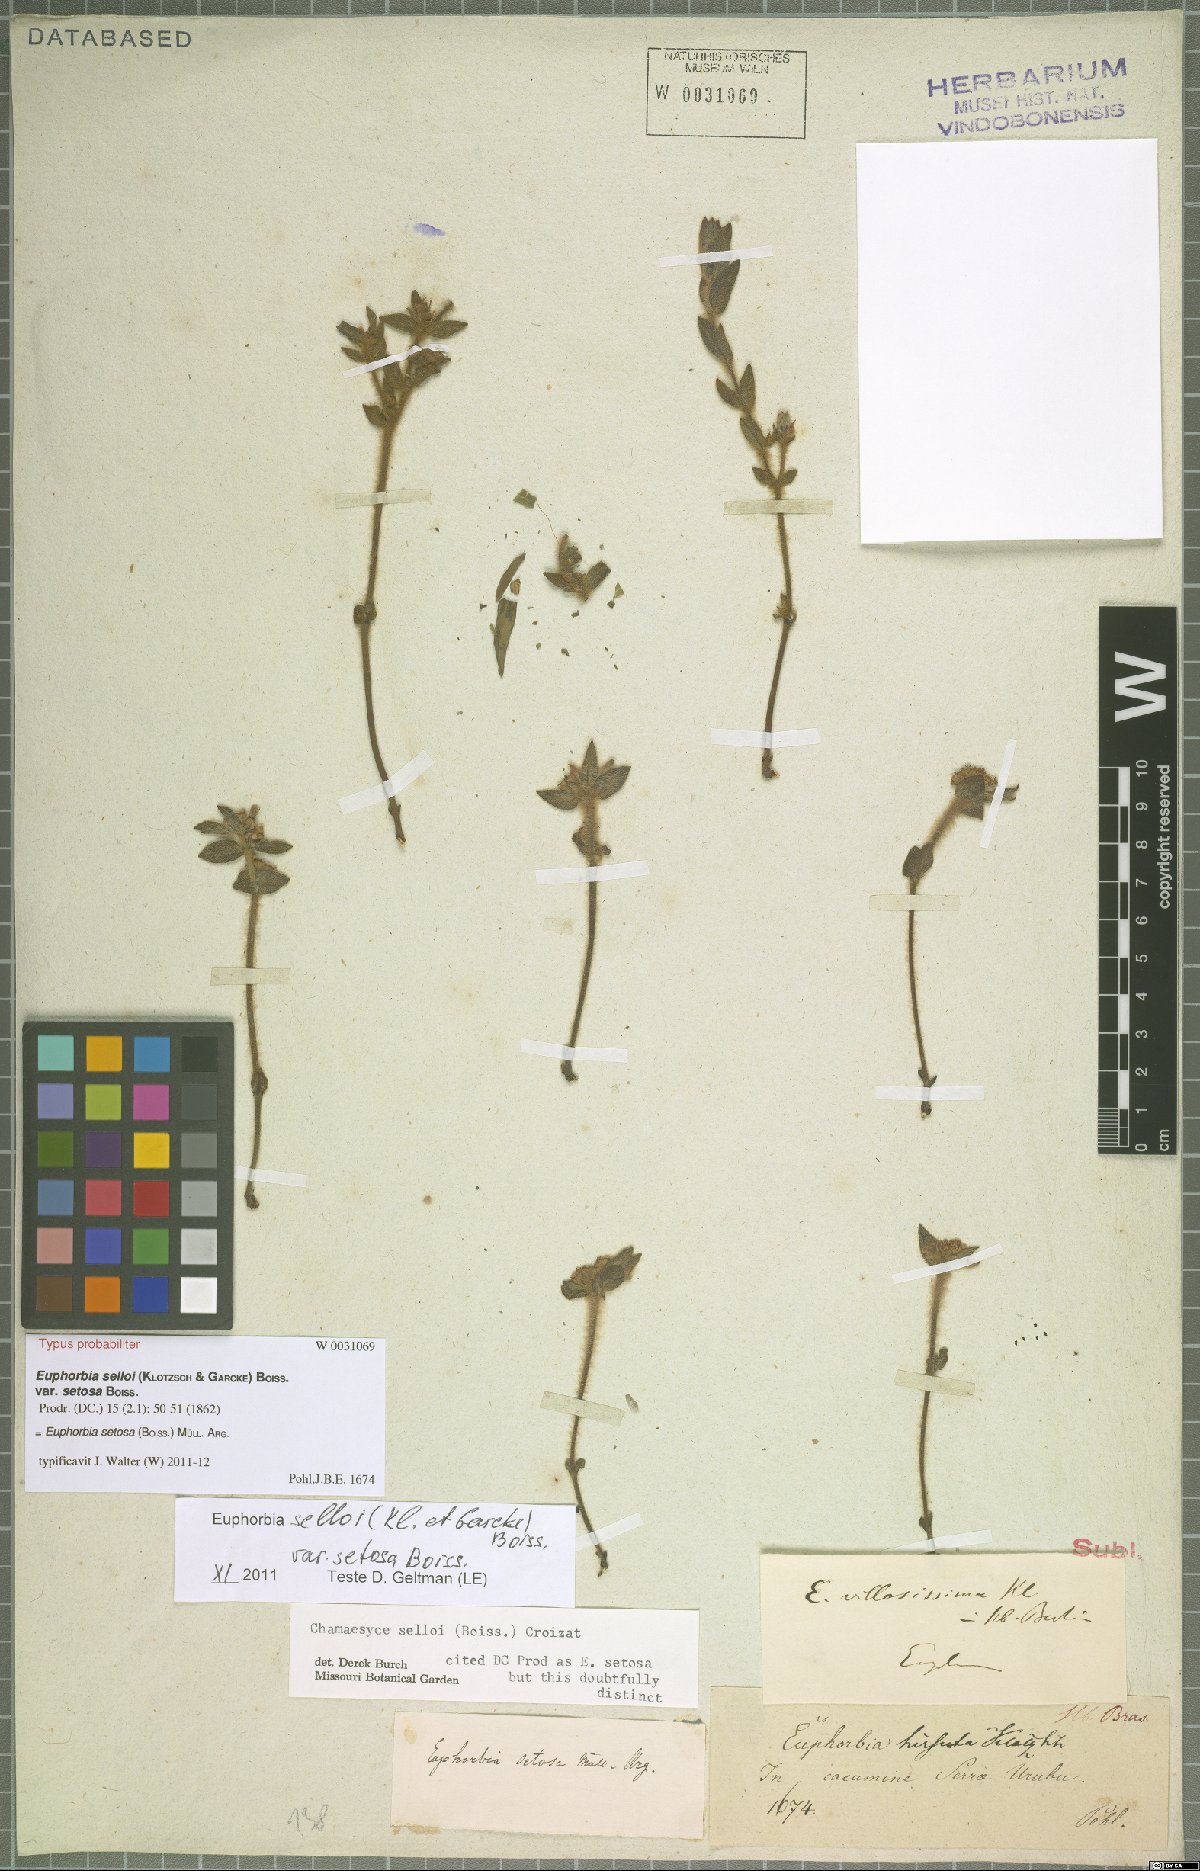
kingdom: Plantae
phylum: Tracheophyta
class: Magnoliopsida
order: Malpighiales
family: Euphorbiaceae
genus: Euphorbia
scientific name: Euphorbia setosa
